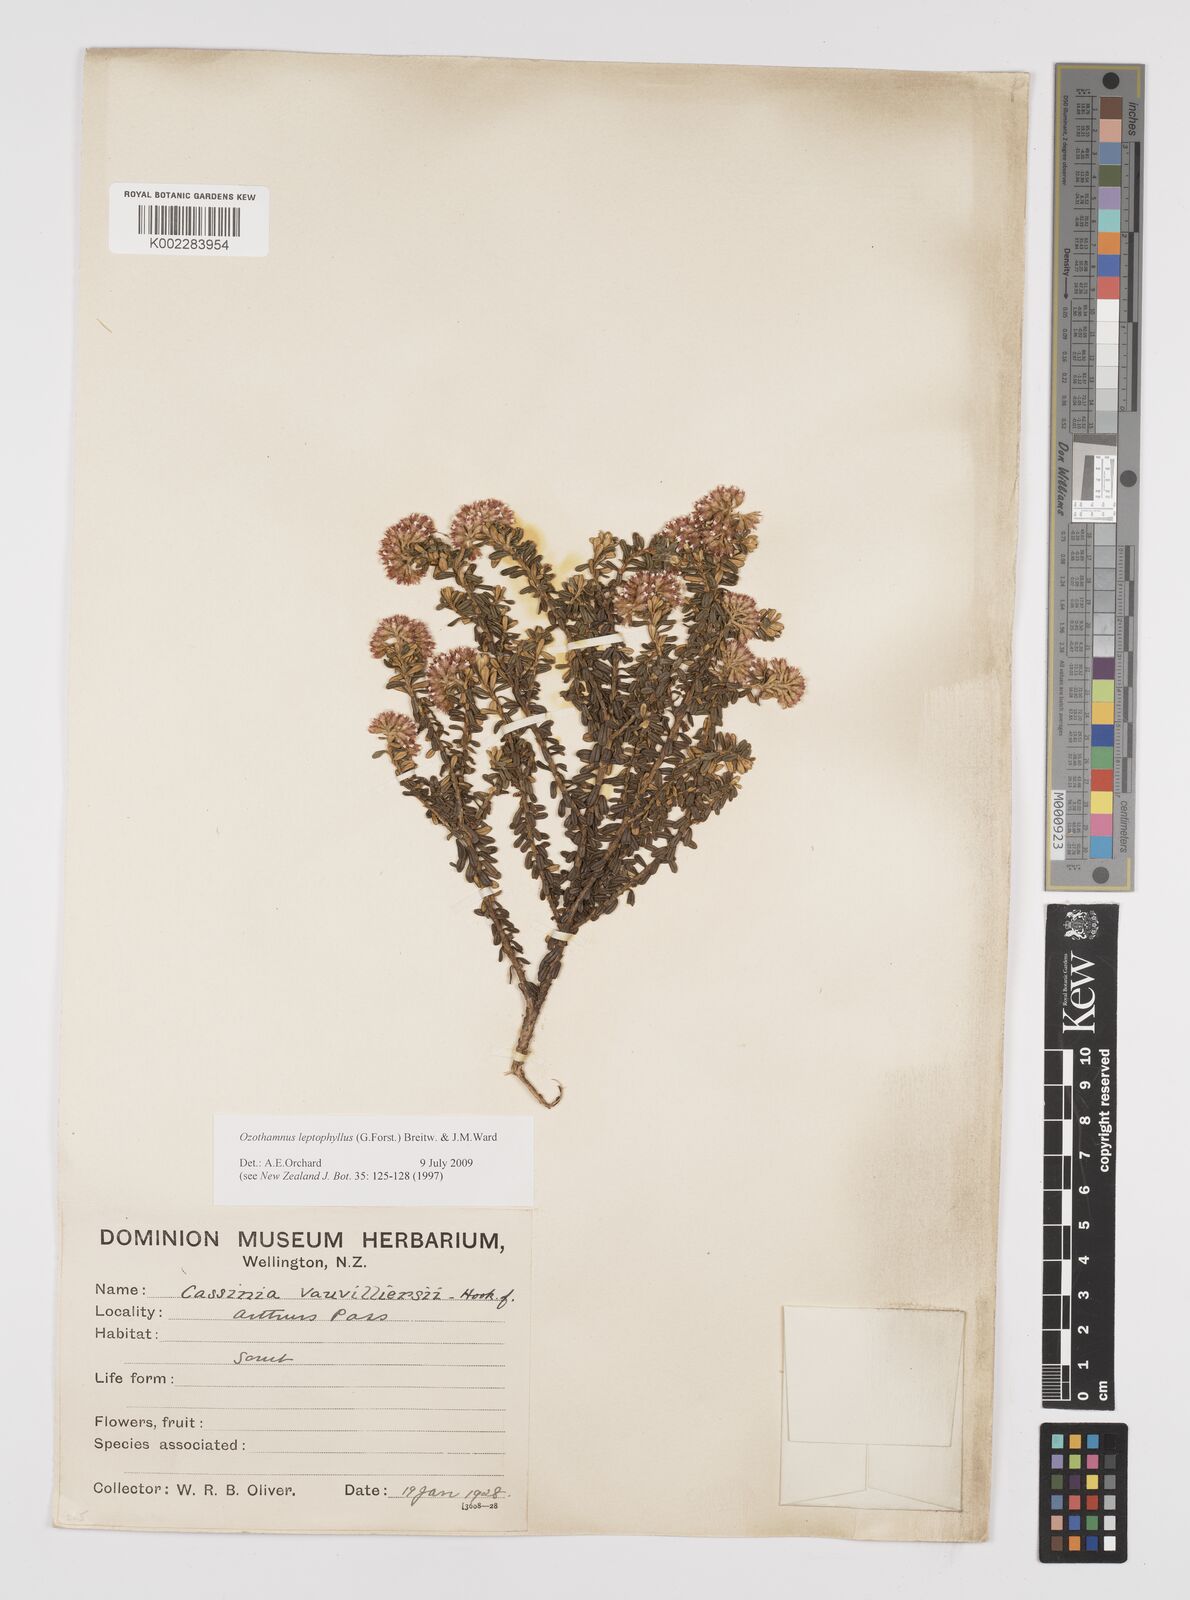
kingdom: Plantae
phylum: Tracheophyta
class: Magnoliopsida
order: Asterales
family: Asteraceae
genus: Ozothamnus
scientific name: Ozothamnus leptophyllus
